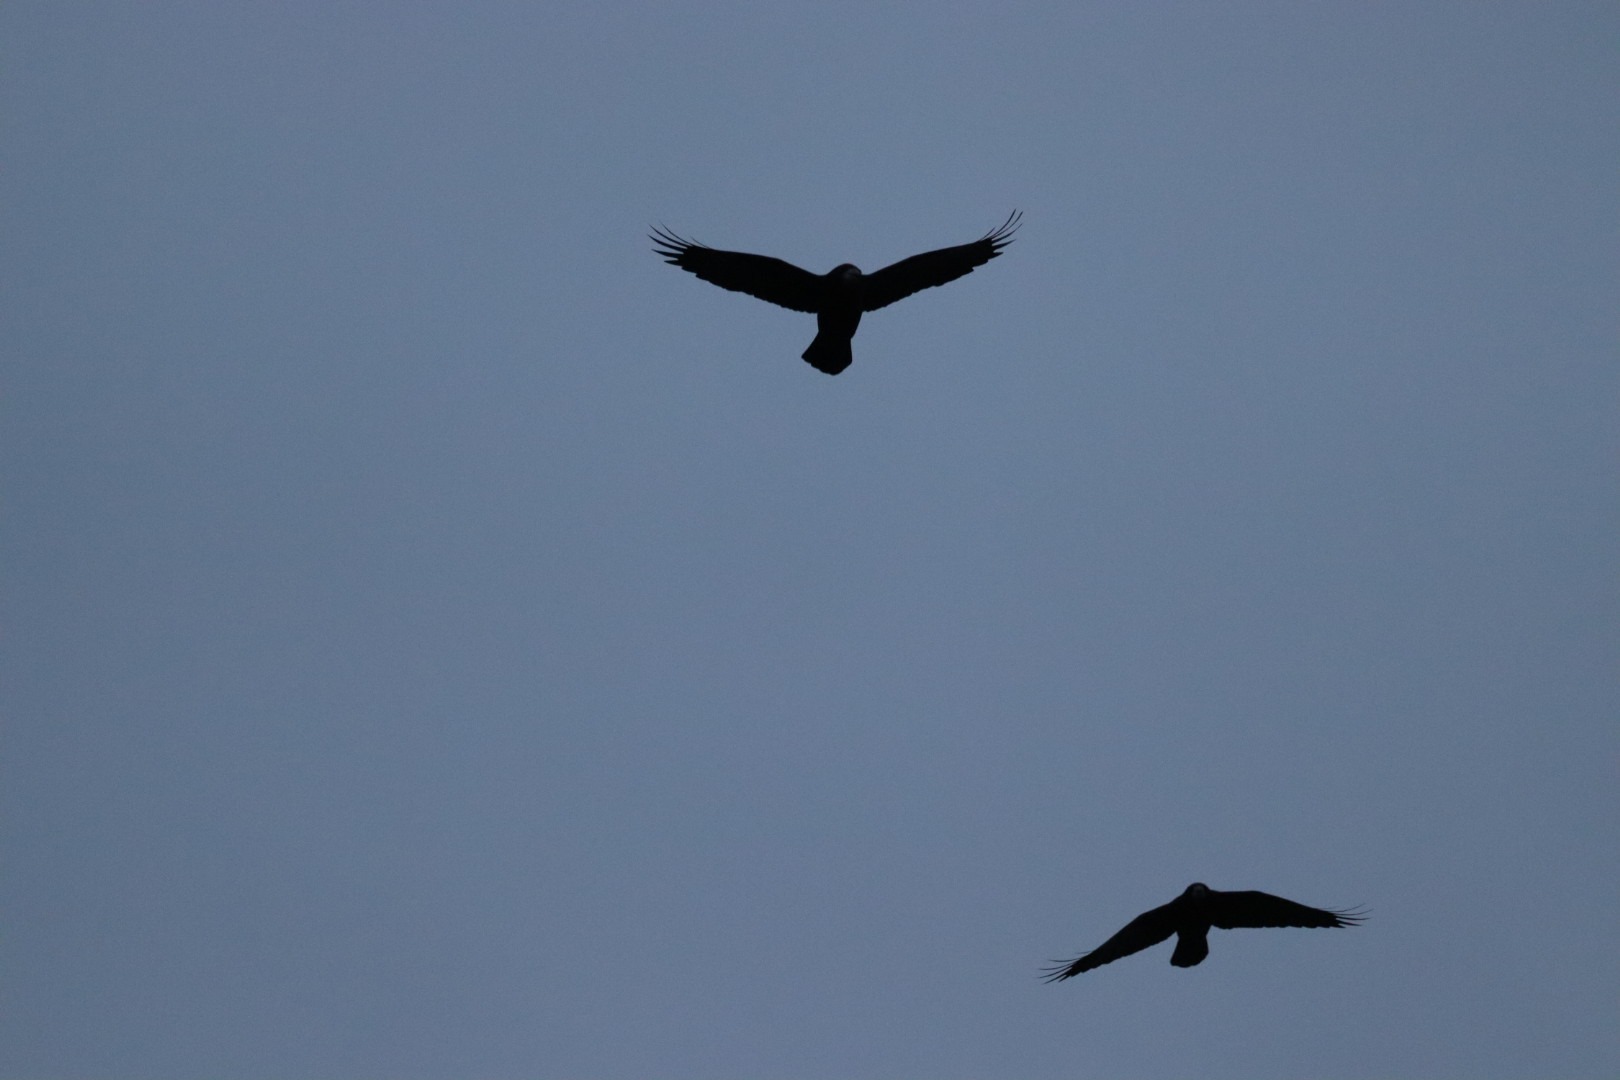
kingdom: Animalia
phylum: Chordata
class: Aves
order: Passeriformes
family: Corvidae
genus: Corvus
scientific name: Corvus frugilegus
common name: Råge
